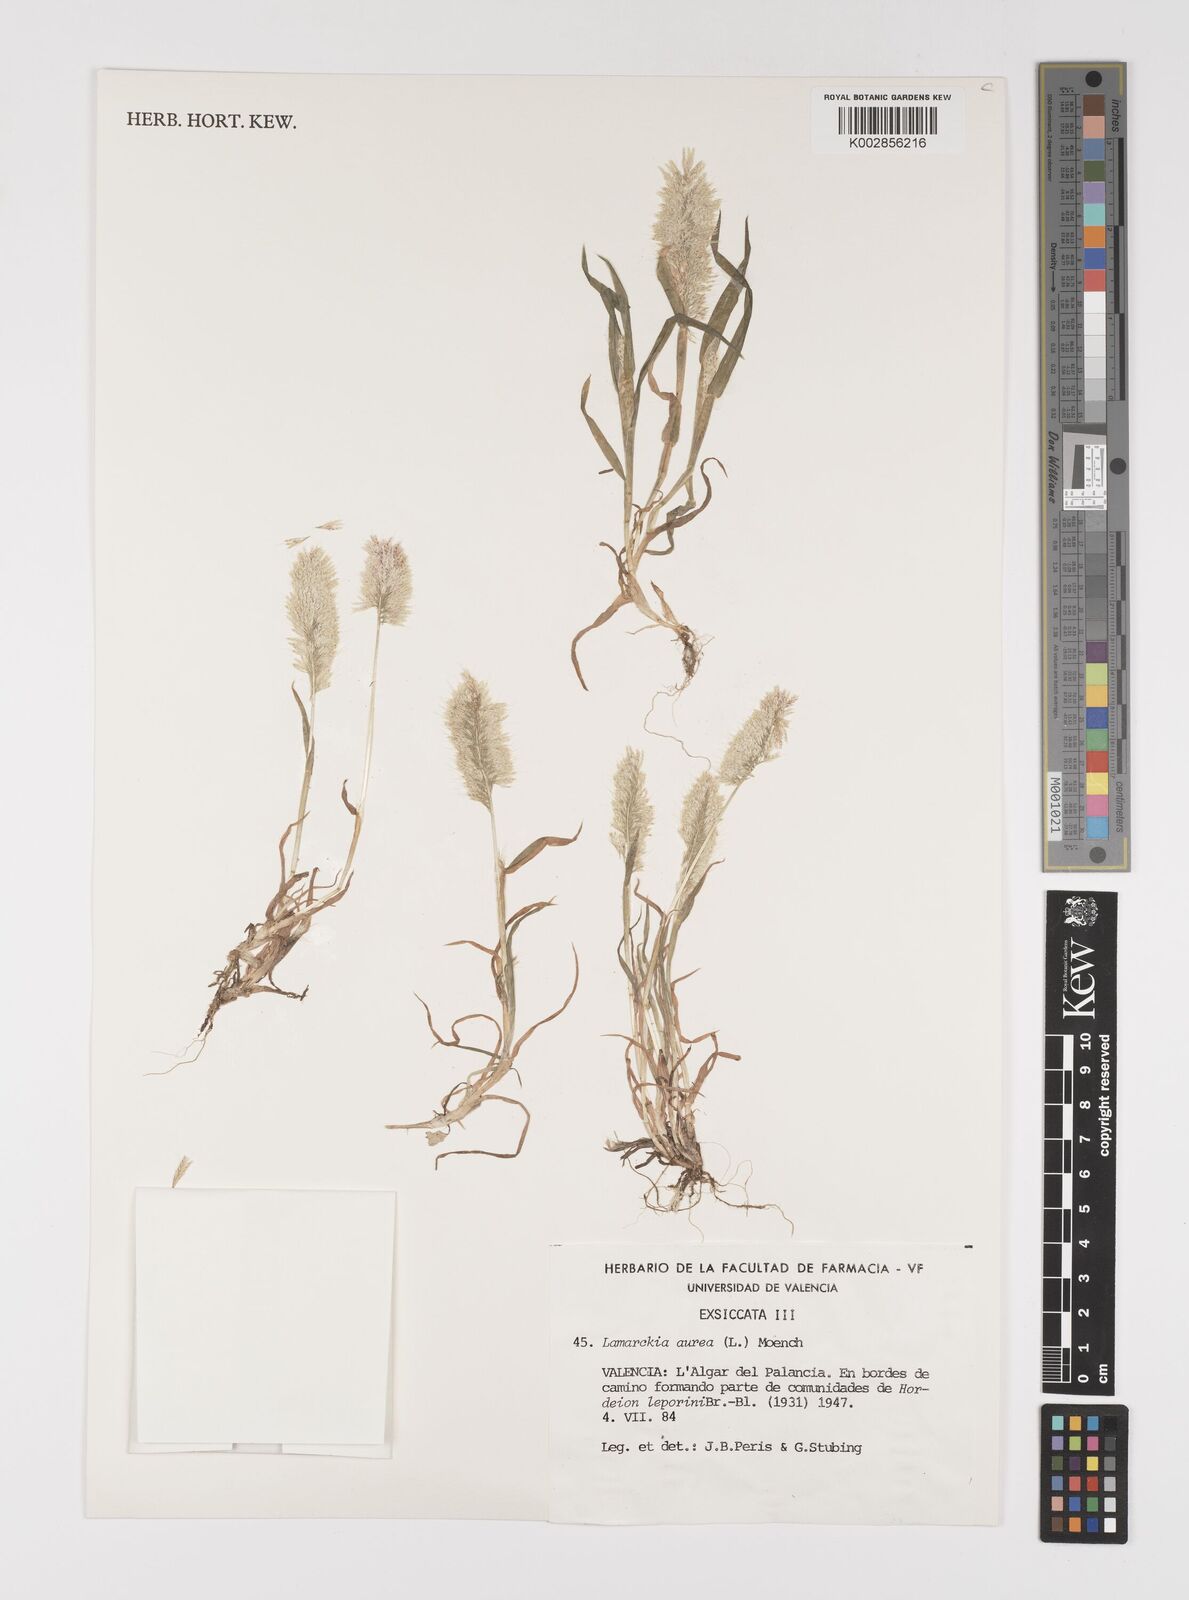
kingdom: Plantae
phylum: Tracheophyta
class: Liliopsida
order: Poales
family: Poaceae
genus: Lamarckia
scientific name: Lamarckia aurea
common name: Golden dog's-tail
